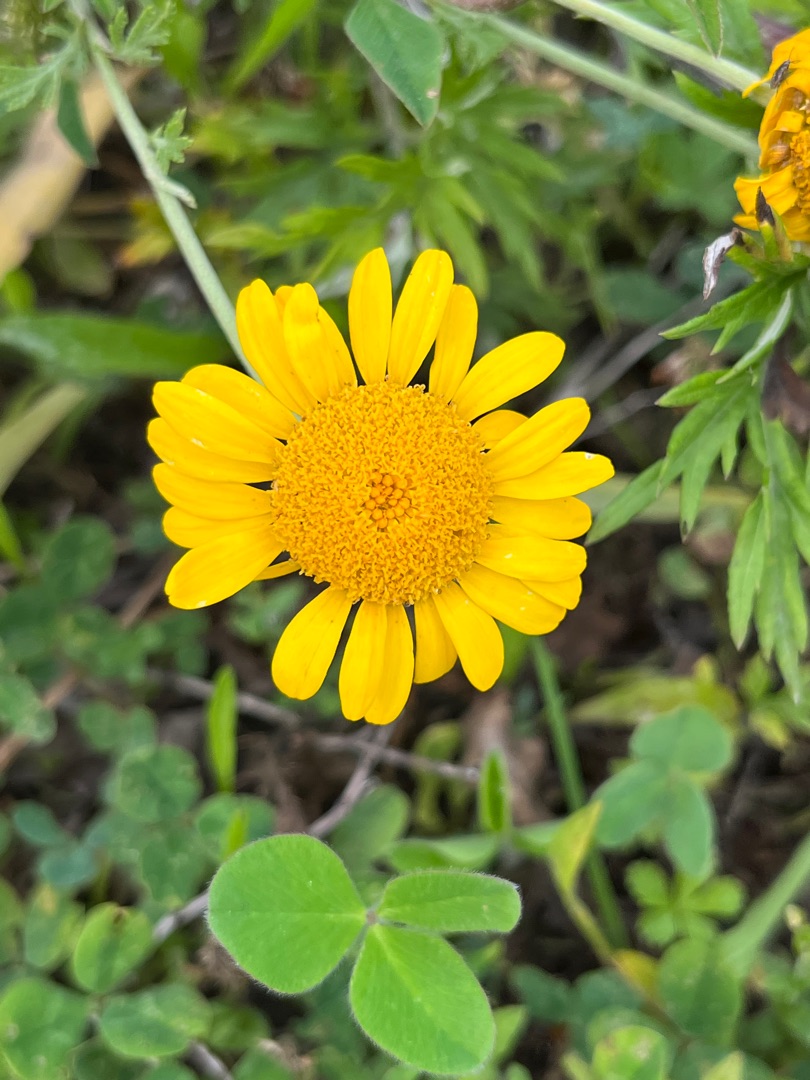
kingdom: Plantae
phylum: Tracheophyta
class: Magnoliopsida
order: Asterales
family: Asteraceae
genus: Cota
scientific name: Cota tinctoria
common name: Farve-gåseurt
